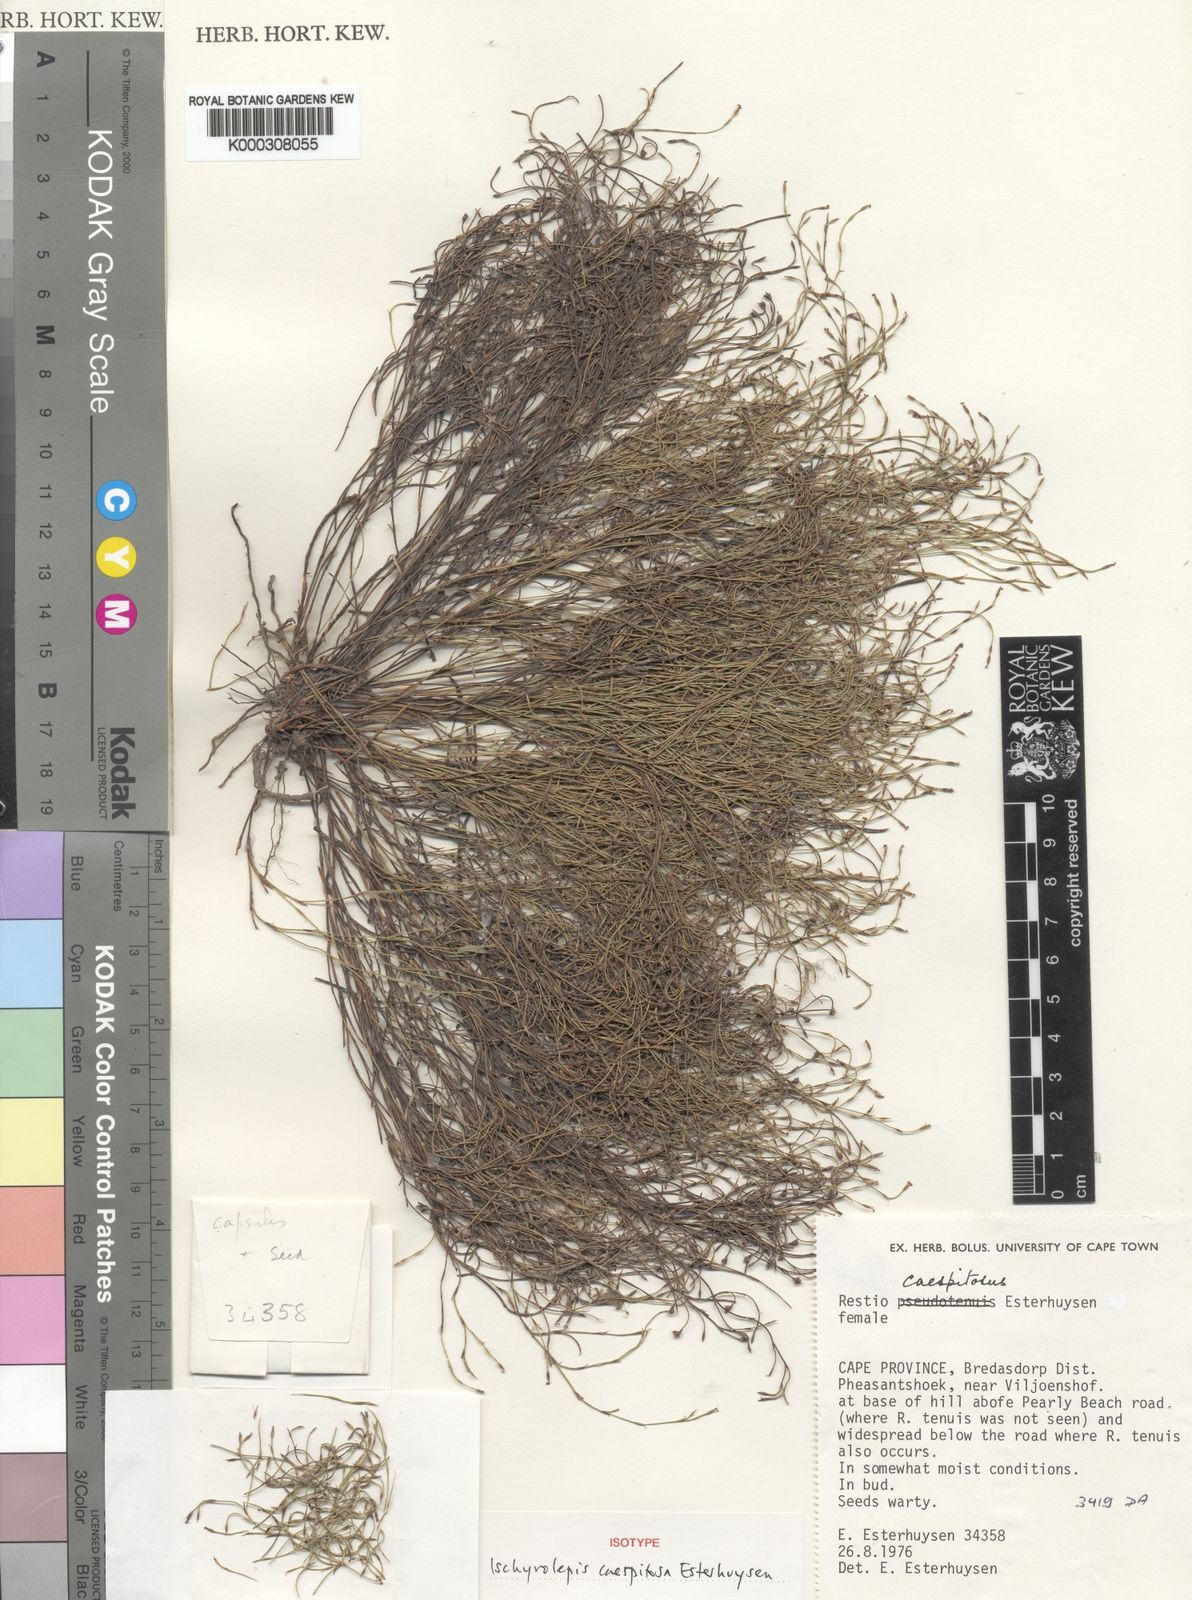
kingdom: Plantae
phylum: Tracheophyta
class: Liliopsida
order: Poales
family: Restionaceae
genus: Restio
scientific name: Restio caespitosus
